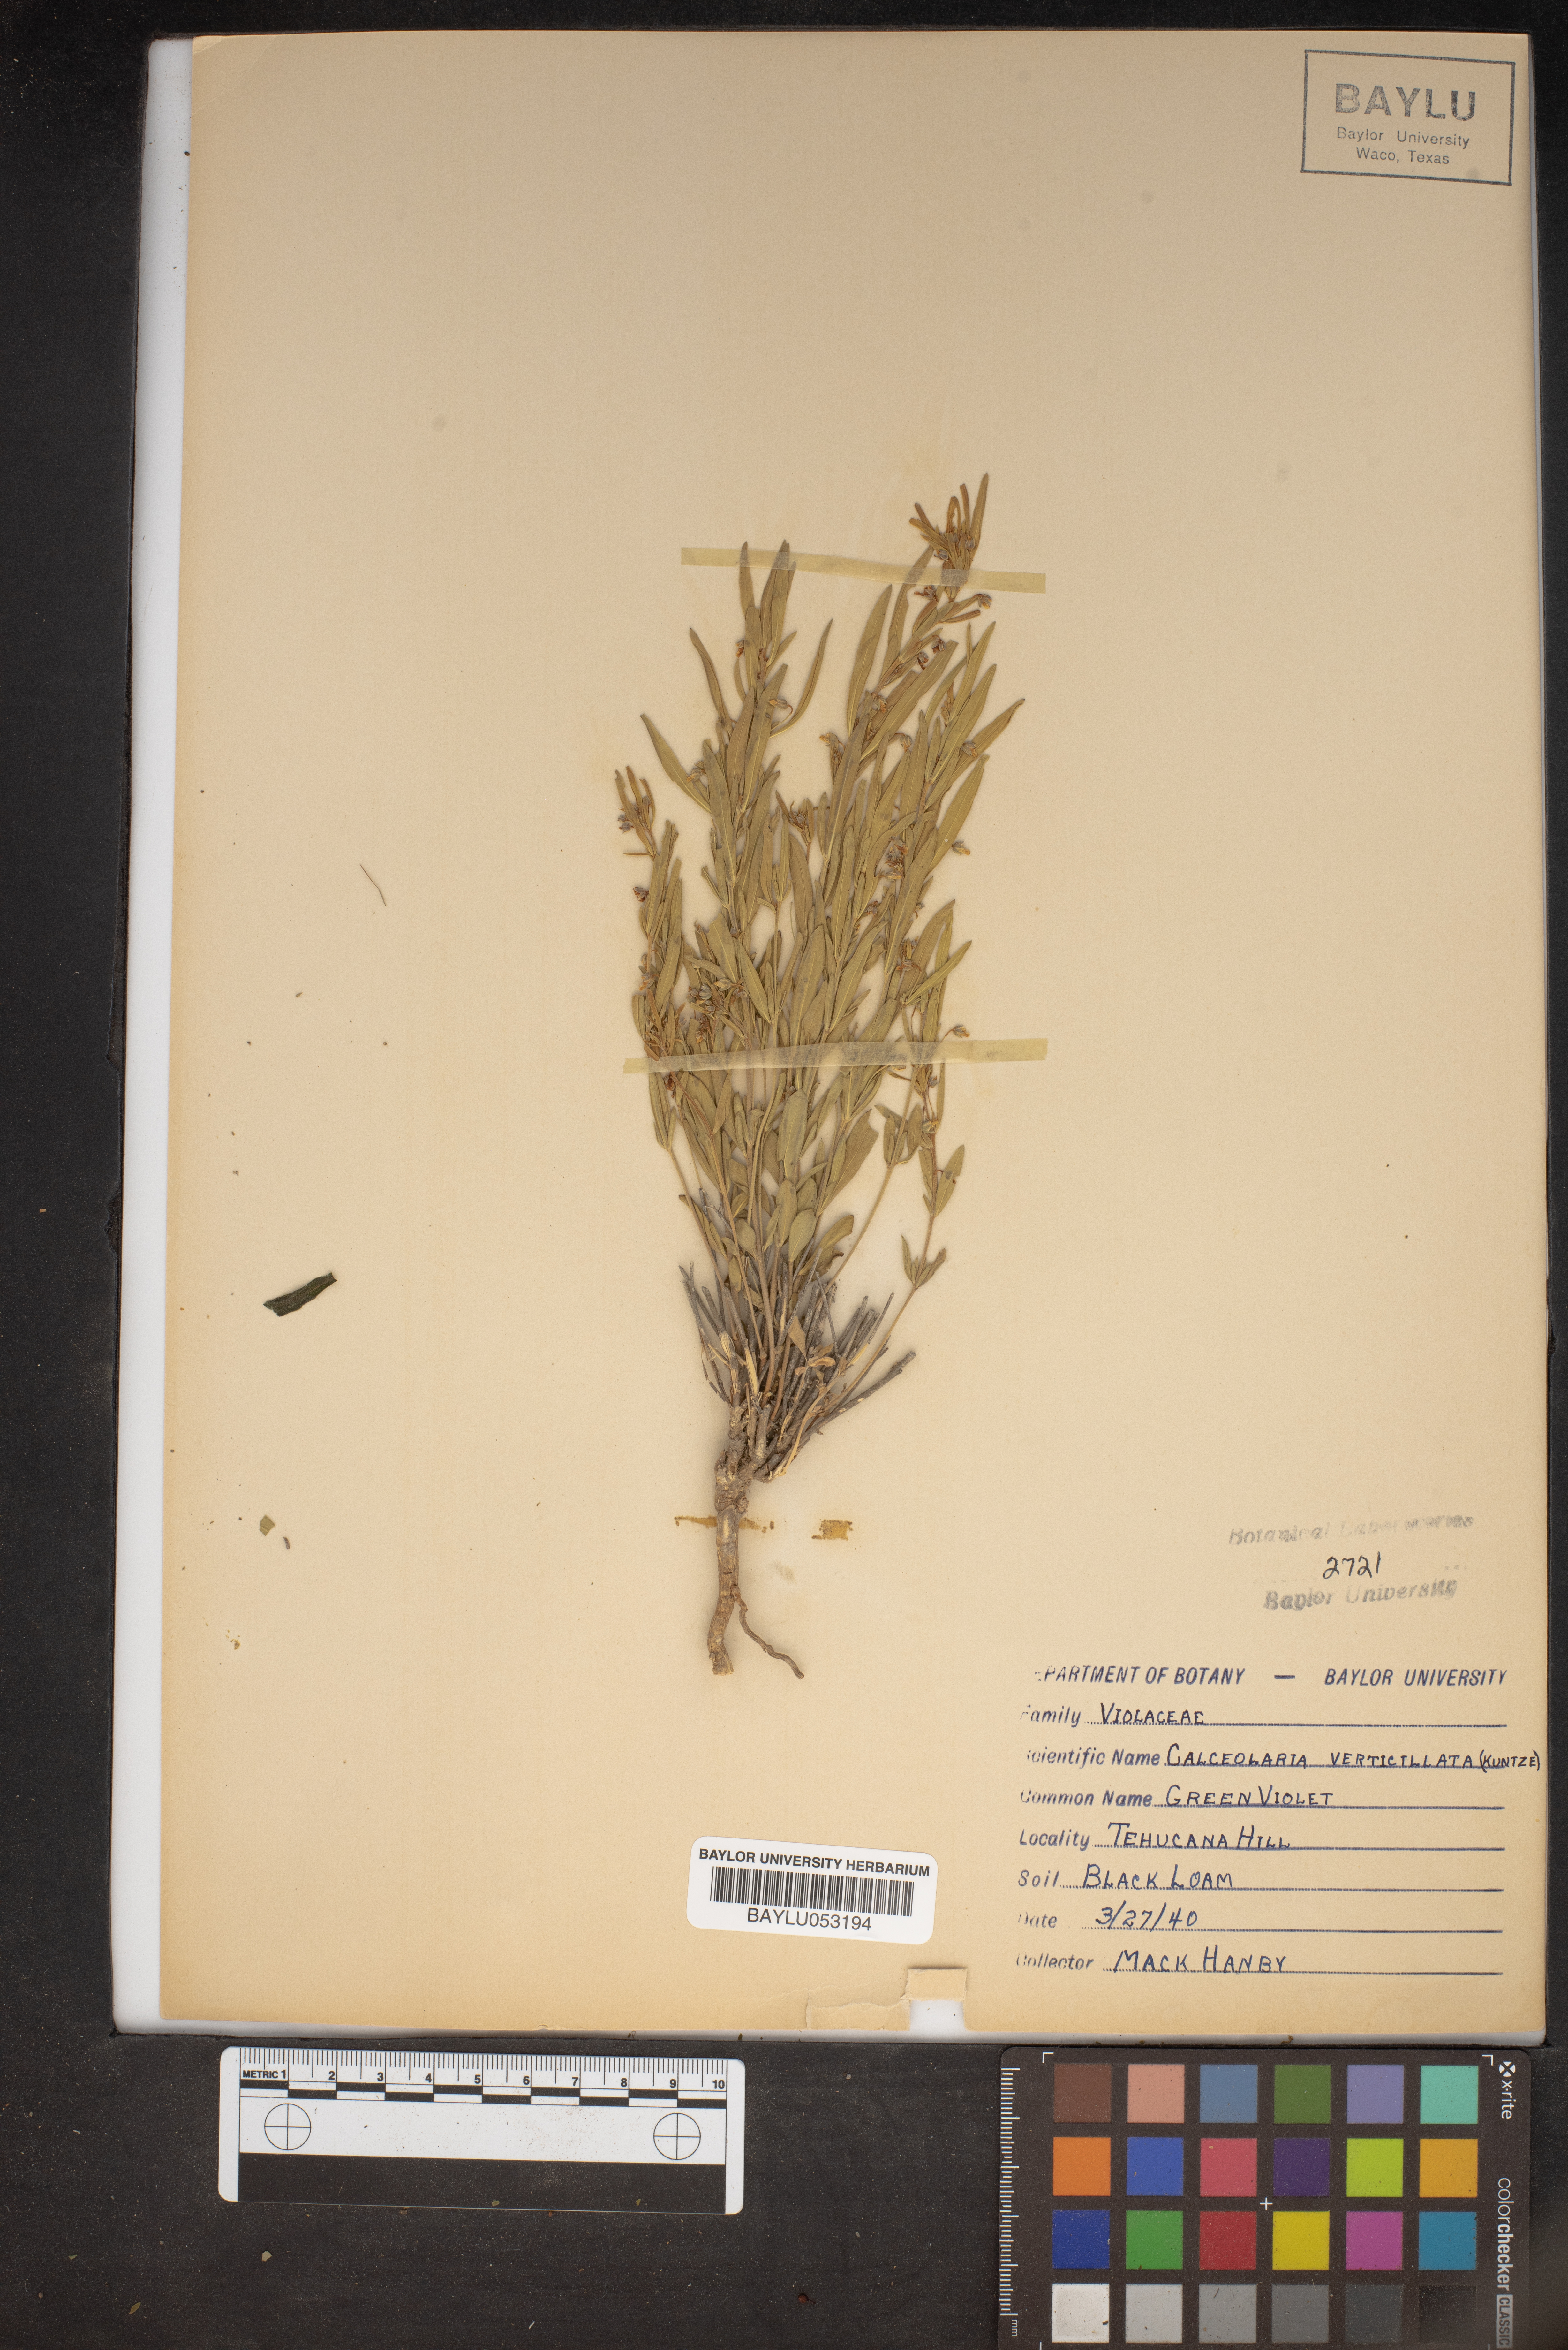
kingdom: Plantae
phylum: Tracheophyta
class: Magnoliopsida
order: Malpighiales
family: Violaceae
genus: Pombalia
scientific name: Pombalia verticillata
